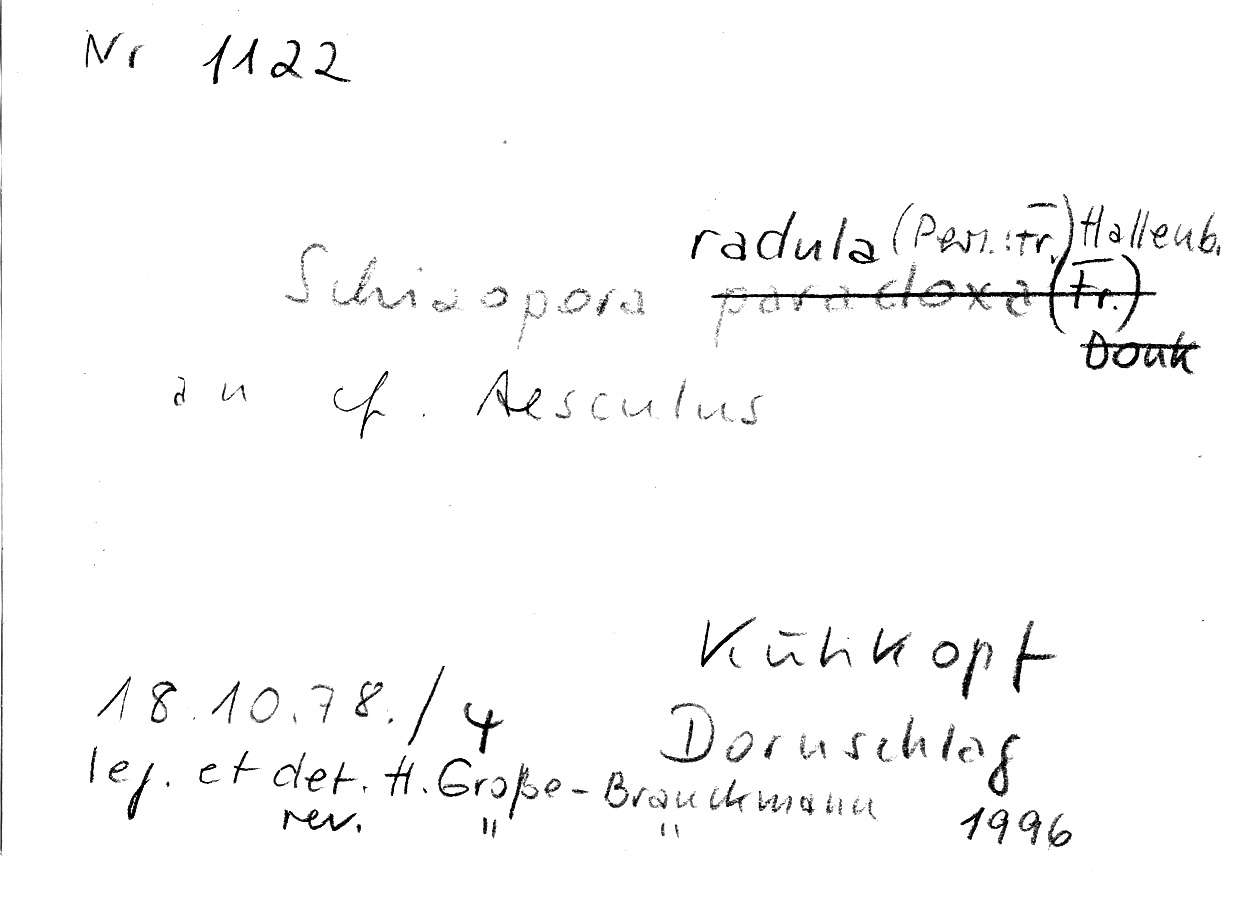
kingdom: Fungi
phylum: Basidiomycota
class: Agaricomycetes
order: Hymenochaetales
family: Schizoporaceae
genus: Xylodon
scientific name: Xylodon raduloides
